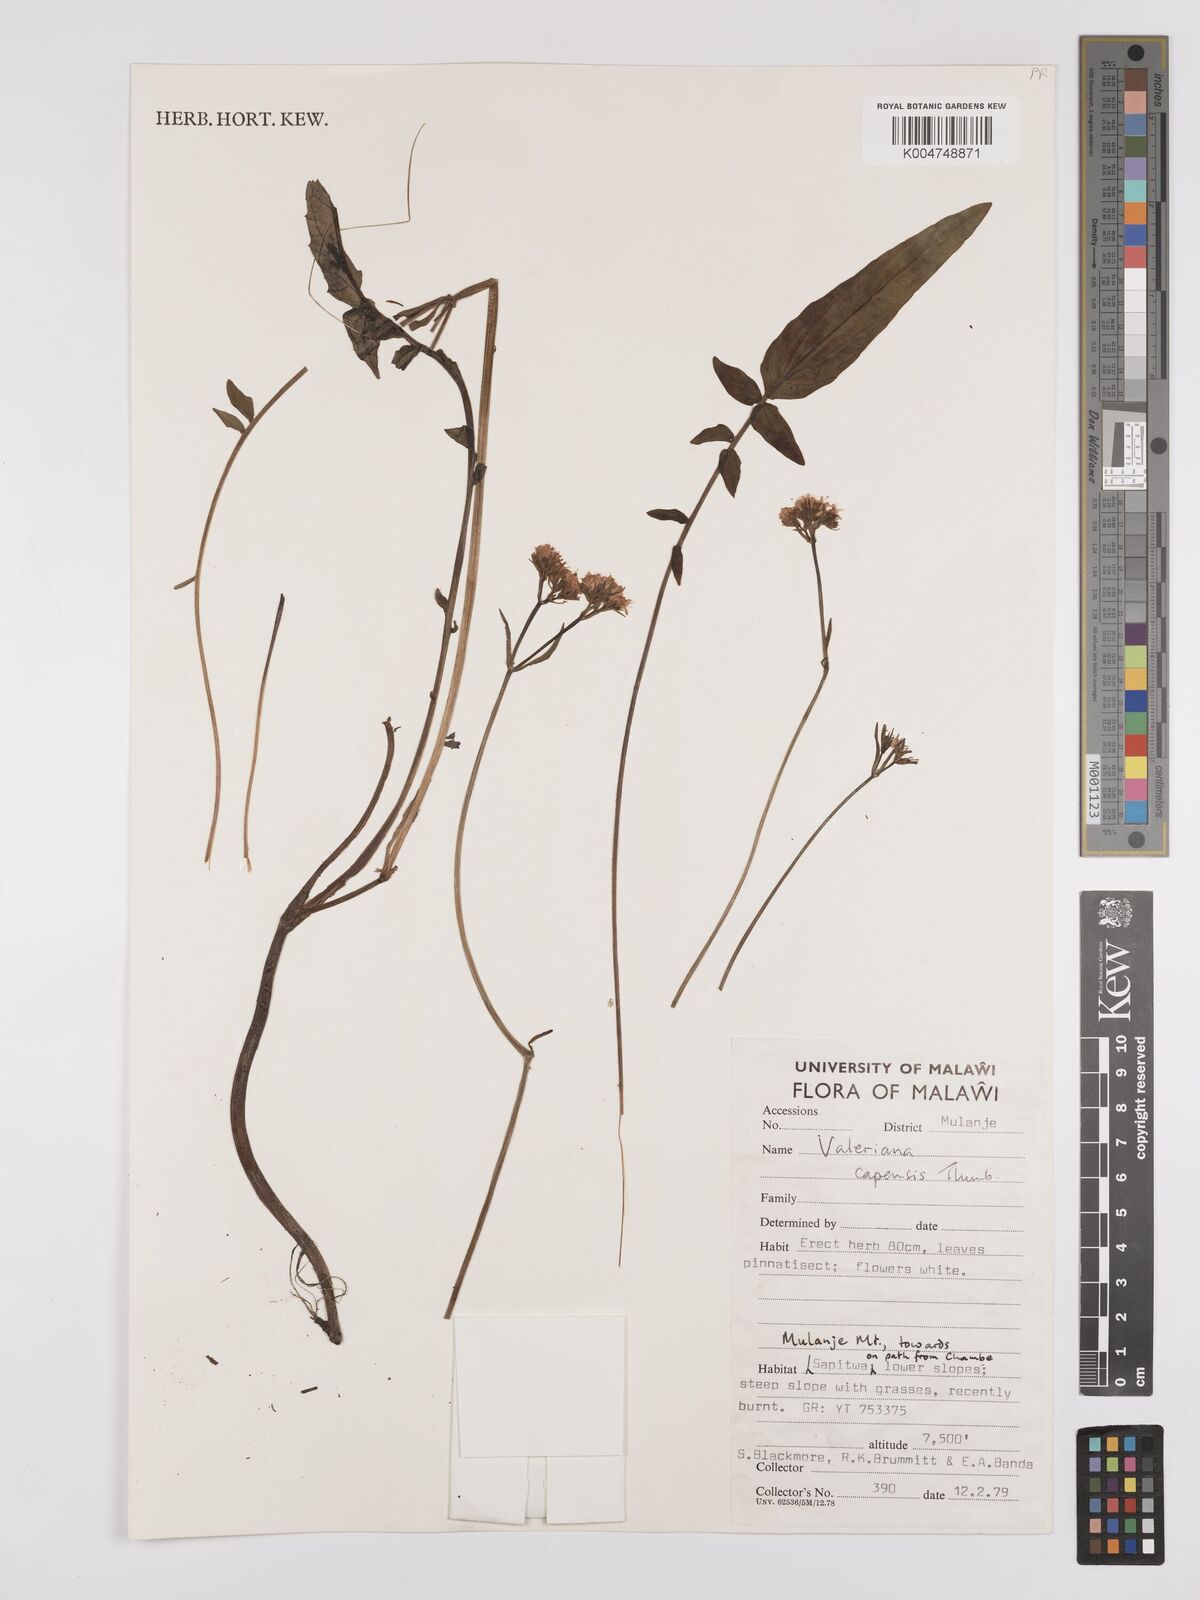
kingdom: Plantae
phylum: Tracheophyta
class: Magnoliopsida
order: Dipsacales
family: Caprifoliaceae
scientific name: Caprifoliaceae
